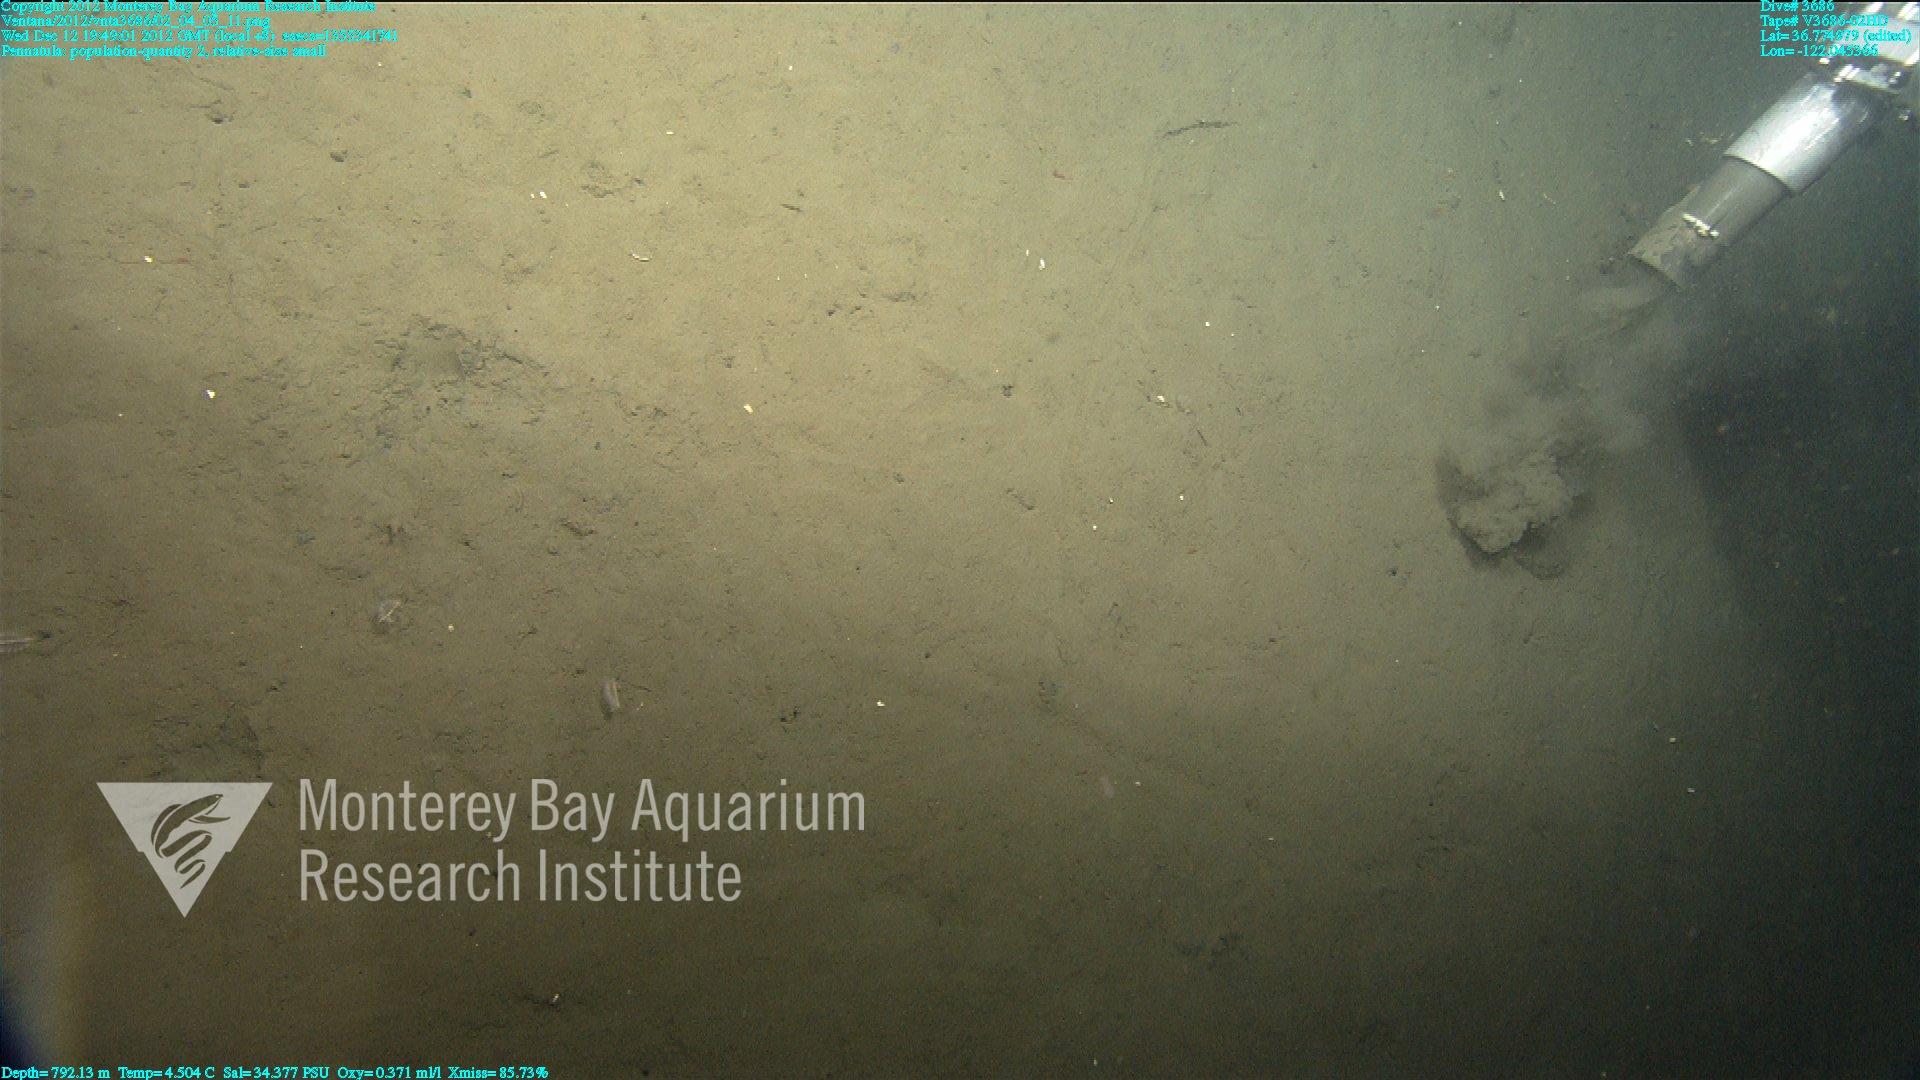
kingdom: Animalia
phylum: Cnidaria
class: Anthozoa
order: Scleralcyonacea
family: Pennatulidae
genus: Pennatula
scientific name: Pennatula
